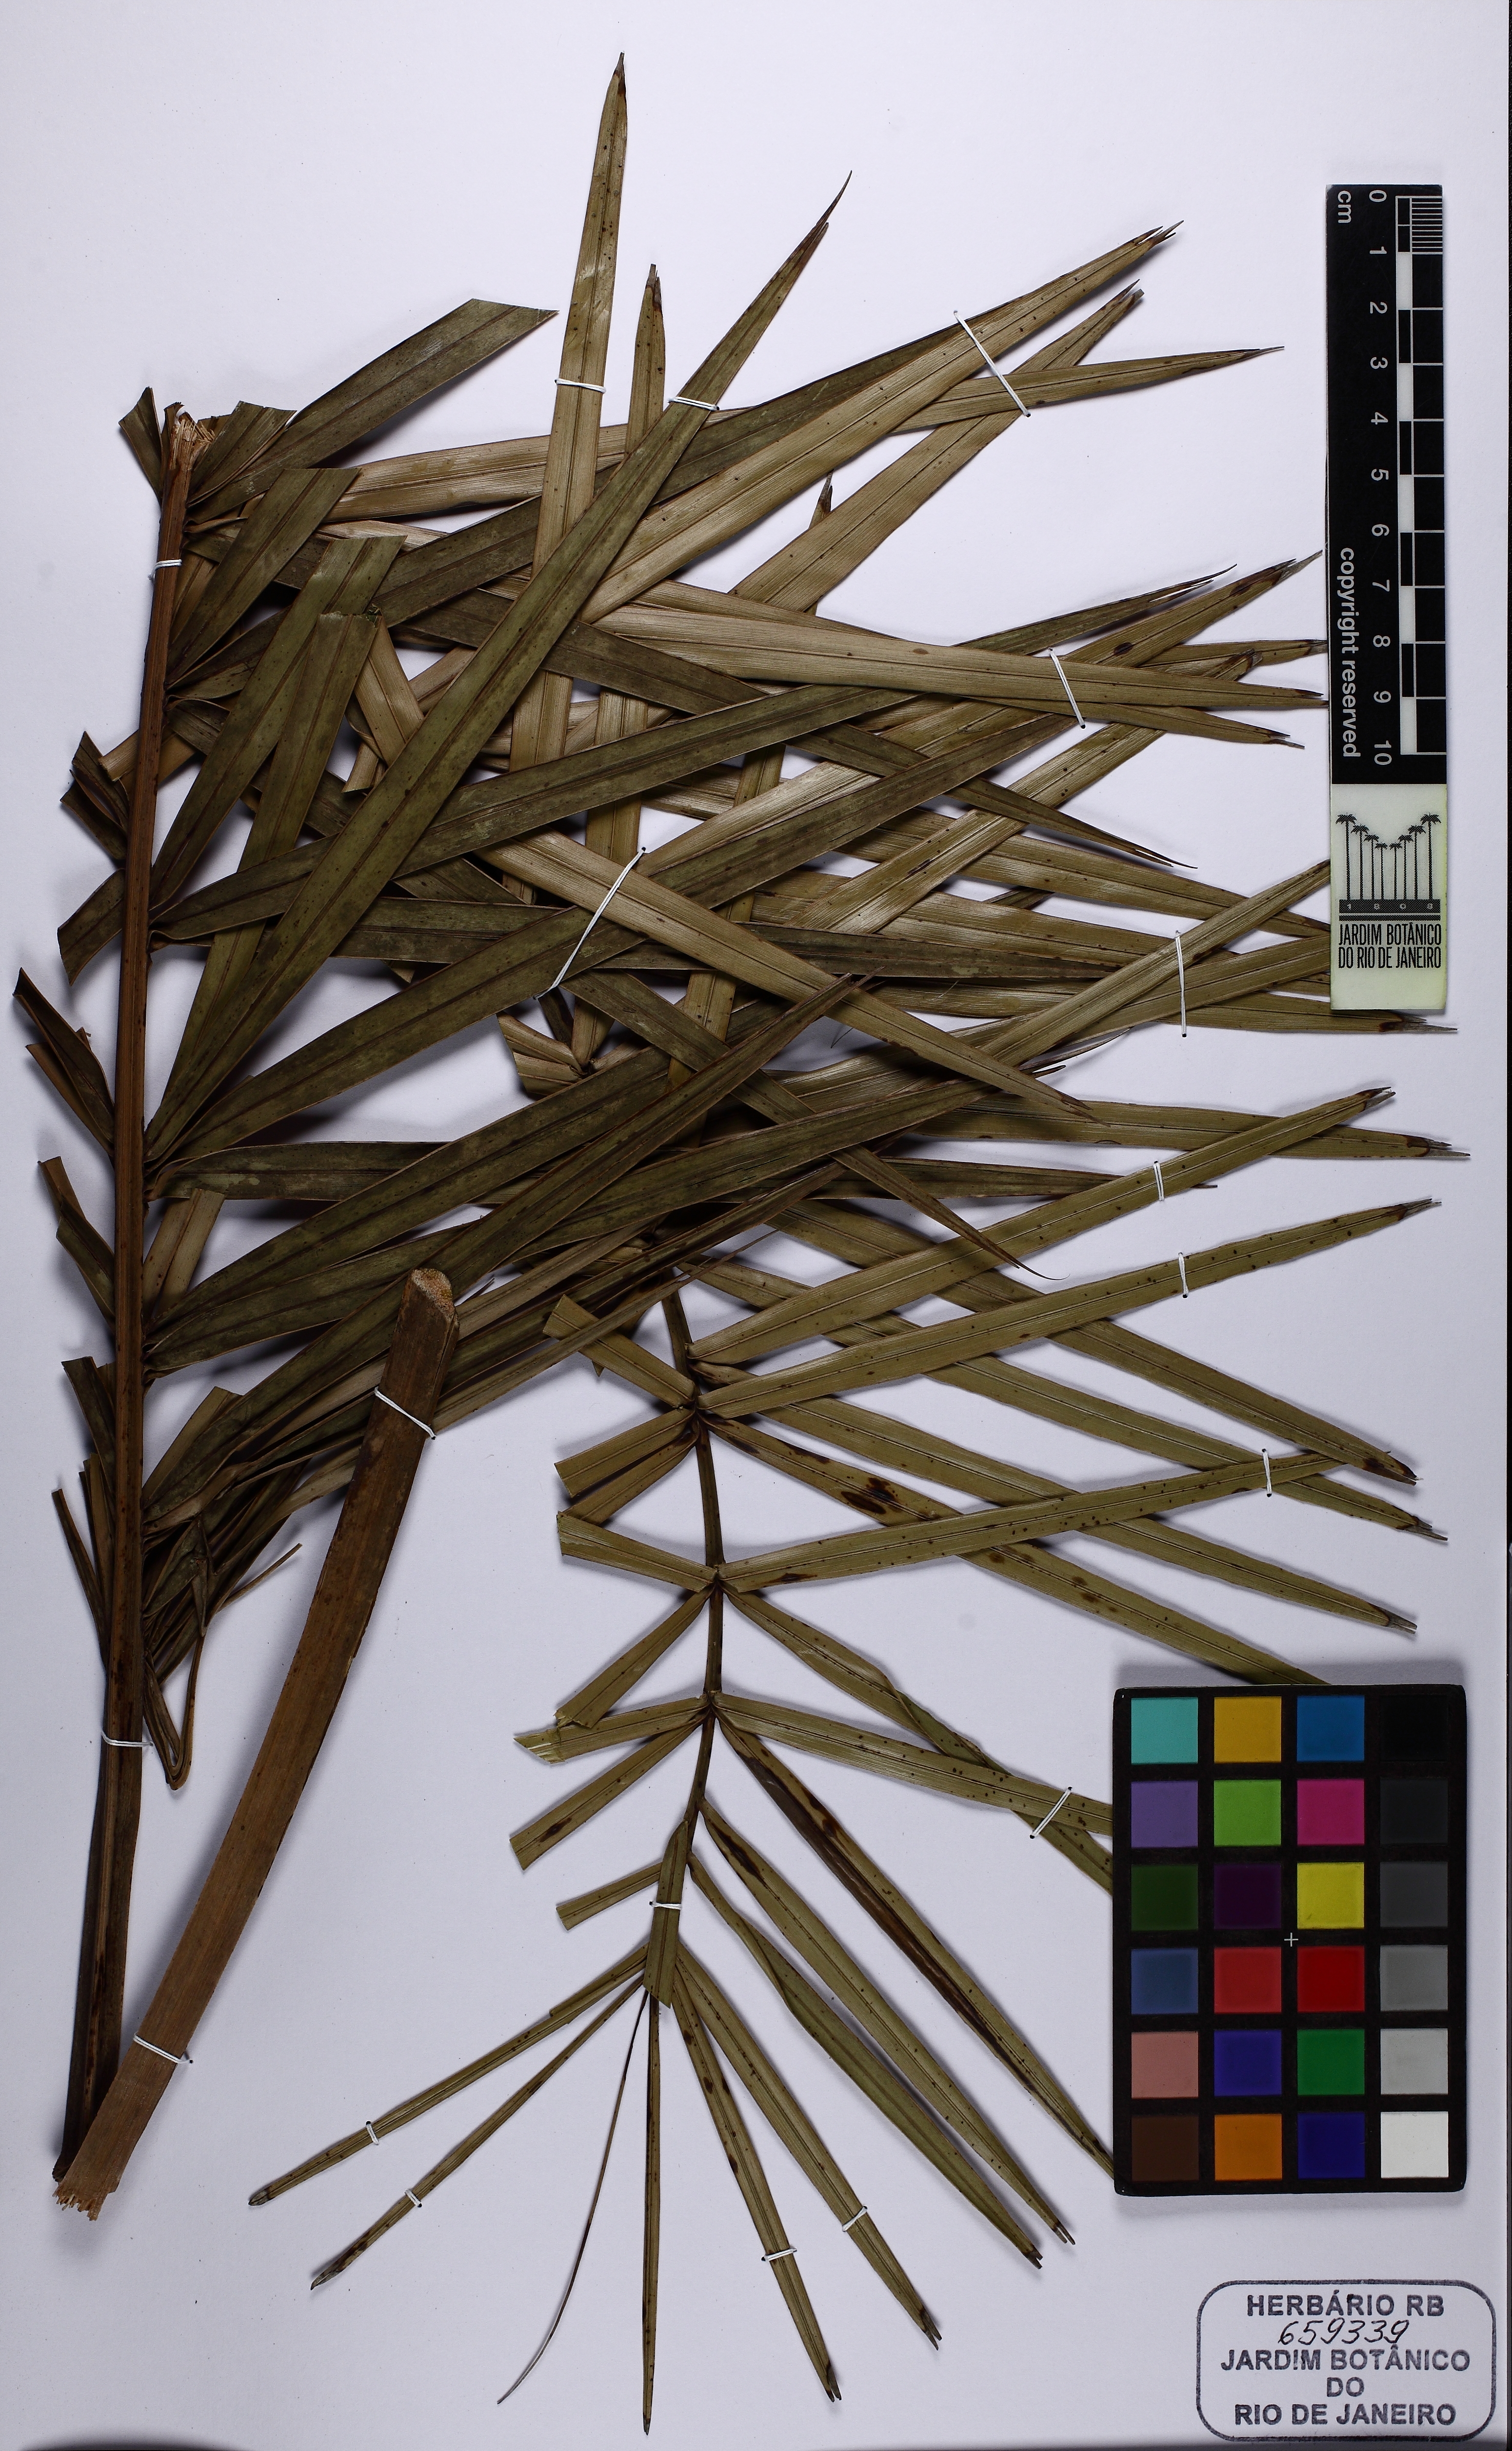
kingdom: Plantae
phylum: Tracheophyta
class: Liliopsida
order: Arecales
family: Arecaceae
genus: Allagoptera
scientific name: Allagoptera campestris
